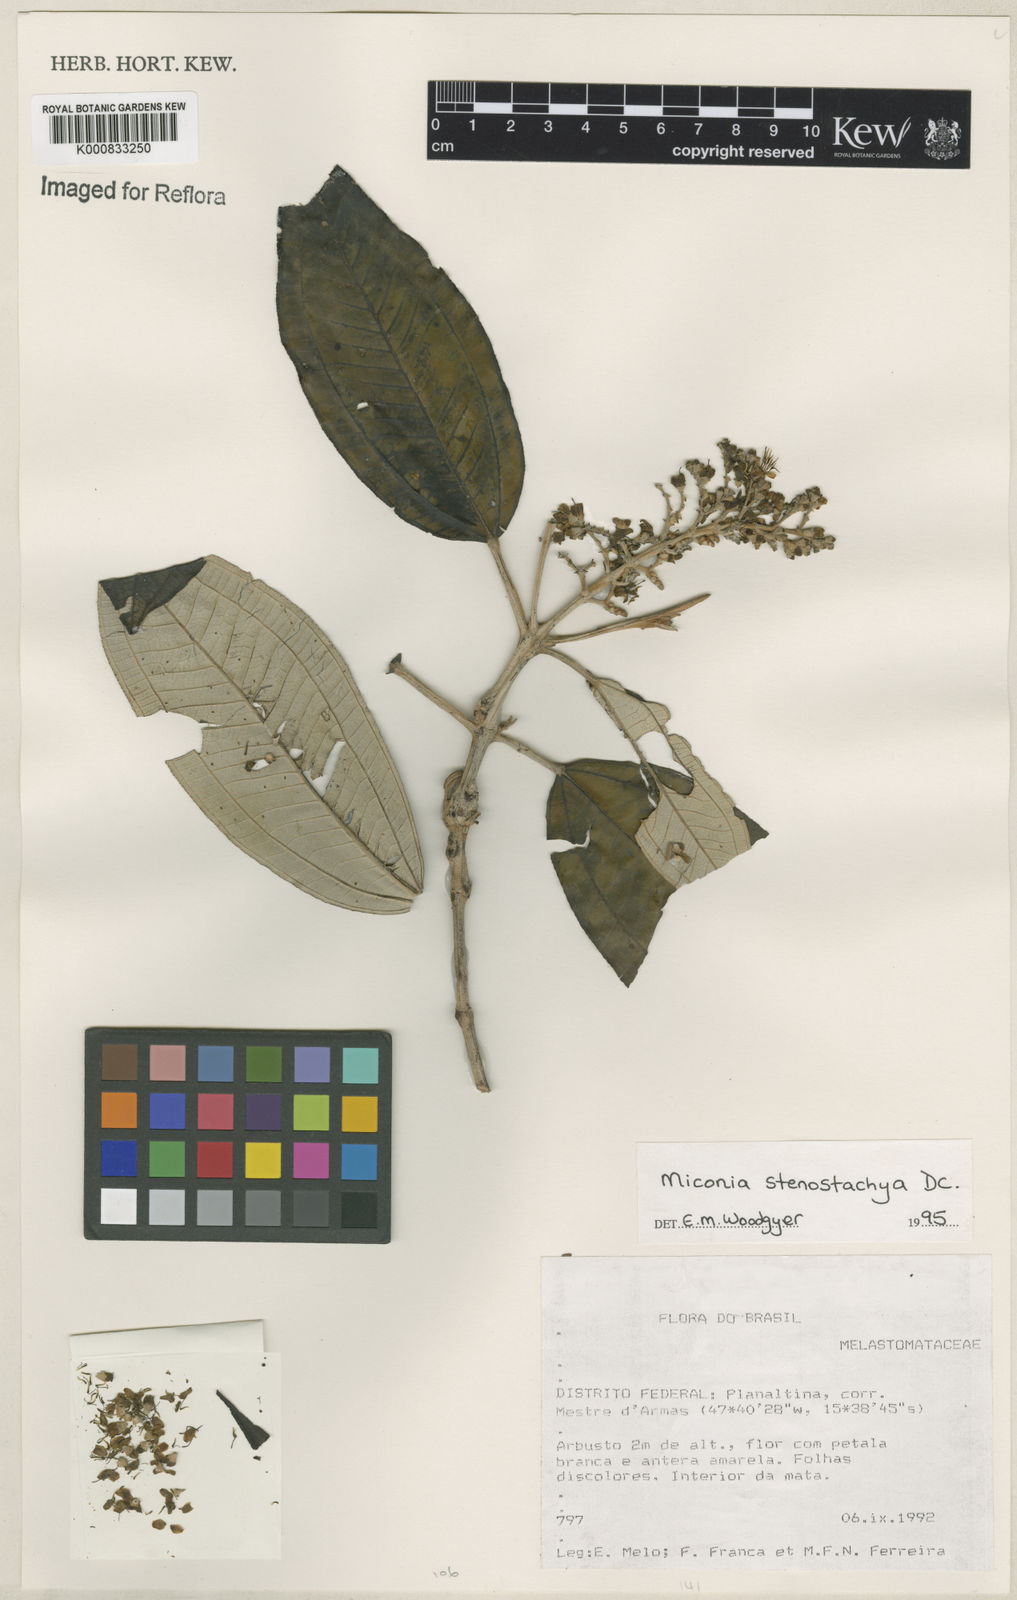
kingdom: Plantae
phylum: Tracheophyta
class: Magnoliopsida
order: Myrtales
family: Melastomataceae
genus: Miconia
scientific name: Miconia stenostachya
